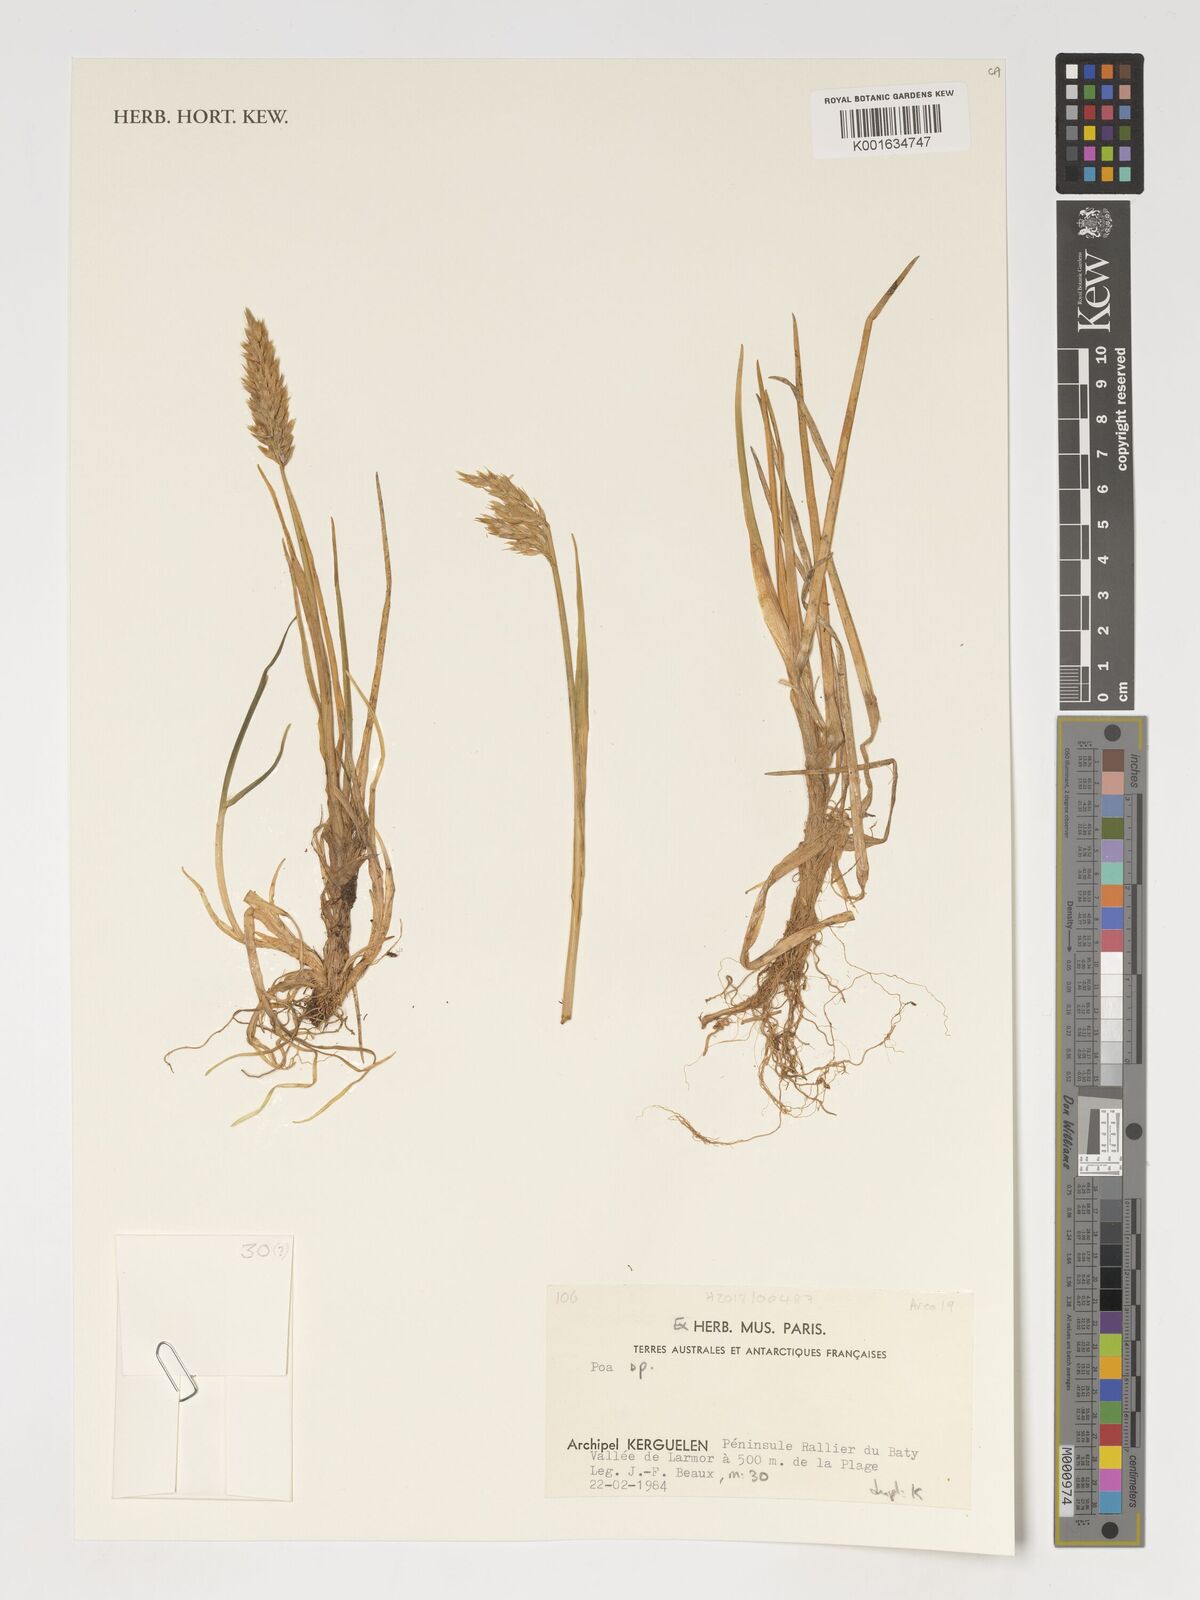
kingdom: Plantae
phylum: Tracheophyta
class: Liliopsida
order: Poales
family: Poaceae
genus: Poa
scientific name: Poa
